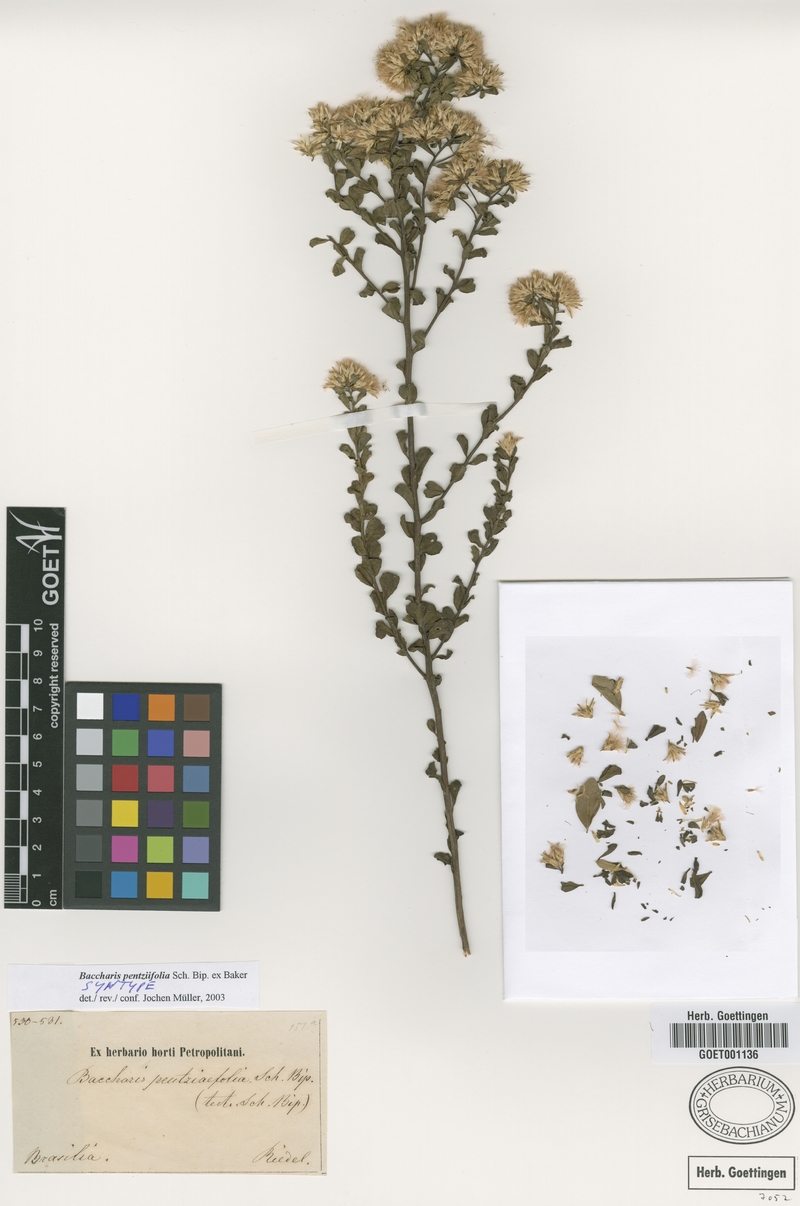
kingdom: Plantae
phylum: Tracheophyta
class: Magnoliopsida
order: Asterales
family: Asteraceae
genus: Baccharis
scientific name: Baccharis pentziifolia
